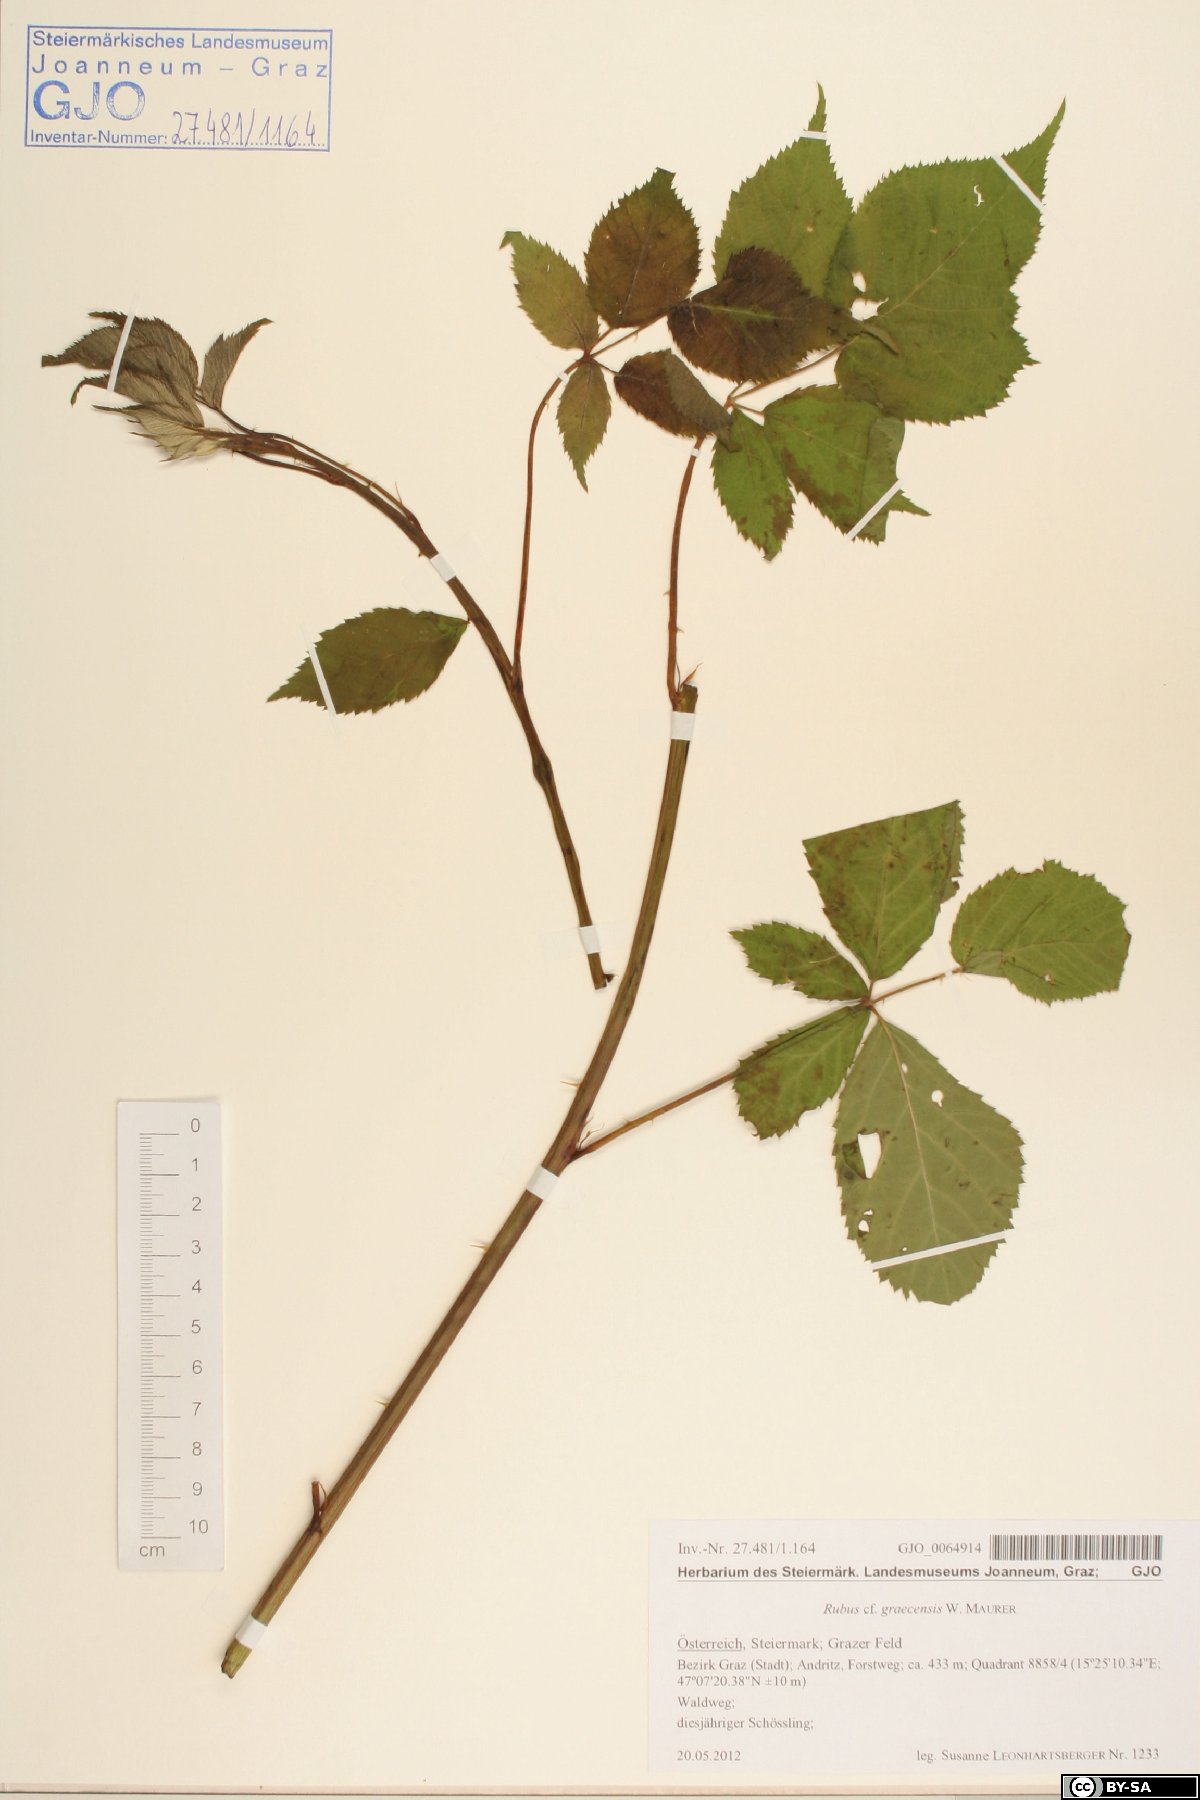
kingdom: Plantae
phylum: Tracheophyta
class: Magnoliopsida
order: Rosales
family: Rosaceae
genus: Rubus
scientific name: Rubus graecensis
